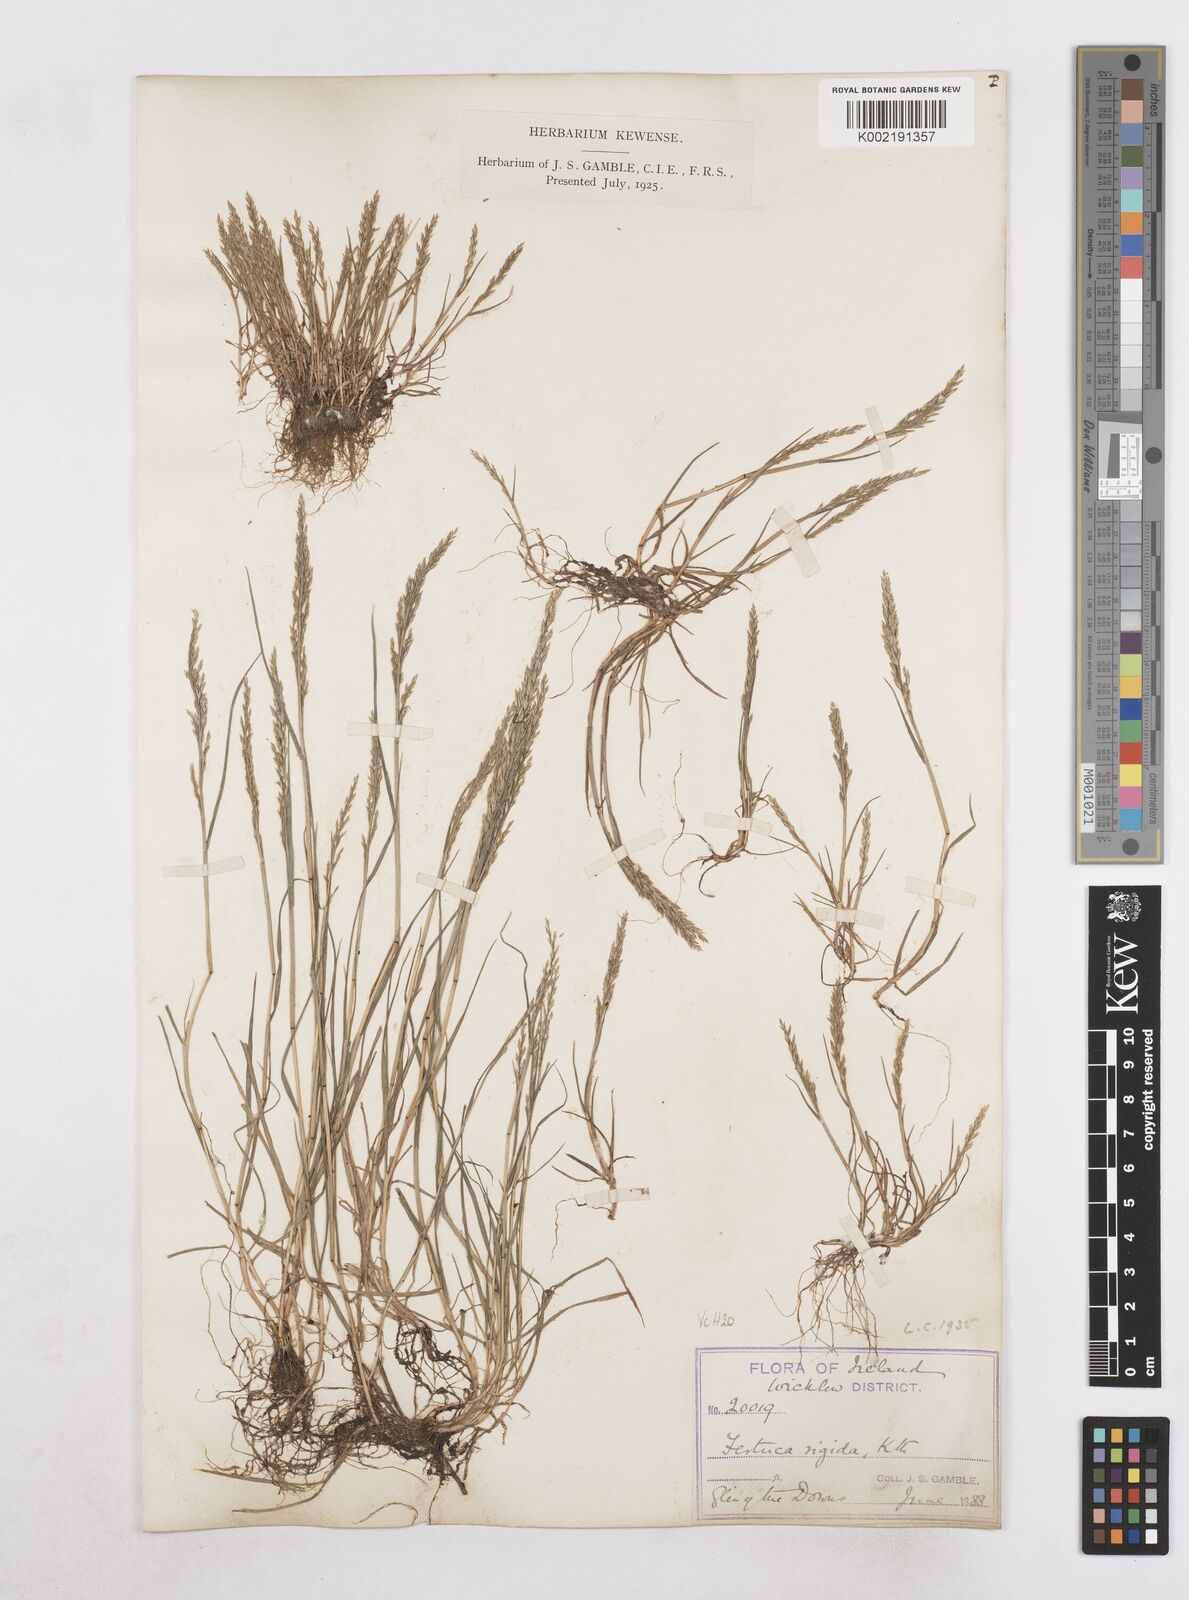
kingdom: Plantae
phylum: Tracheophyta
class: Liliopsida
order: Poales
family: Poaceae
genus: Catapodium
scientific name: Catapodium rigidum
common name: Fern-grass
